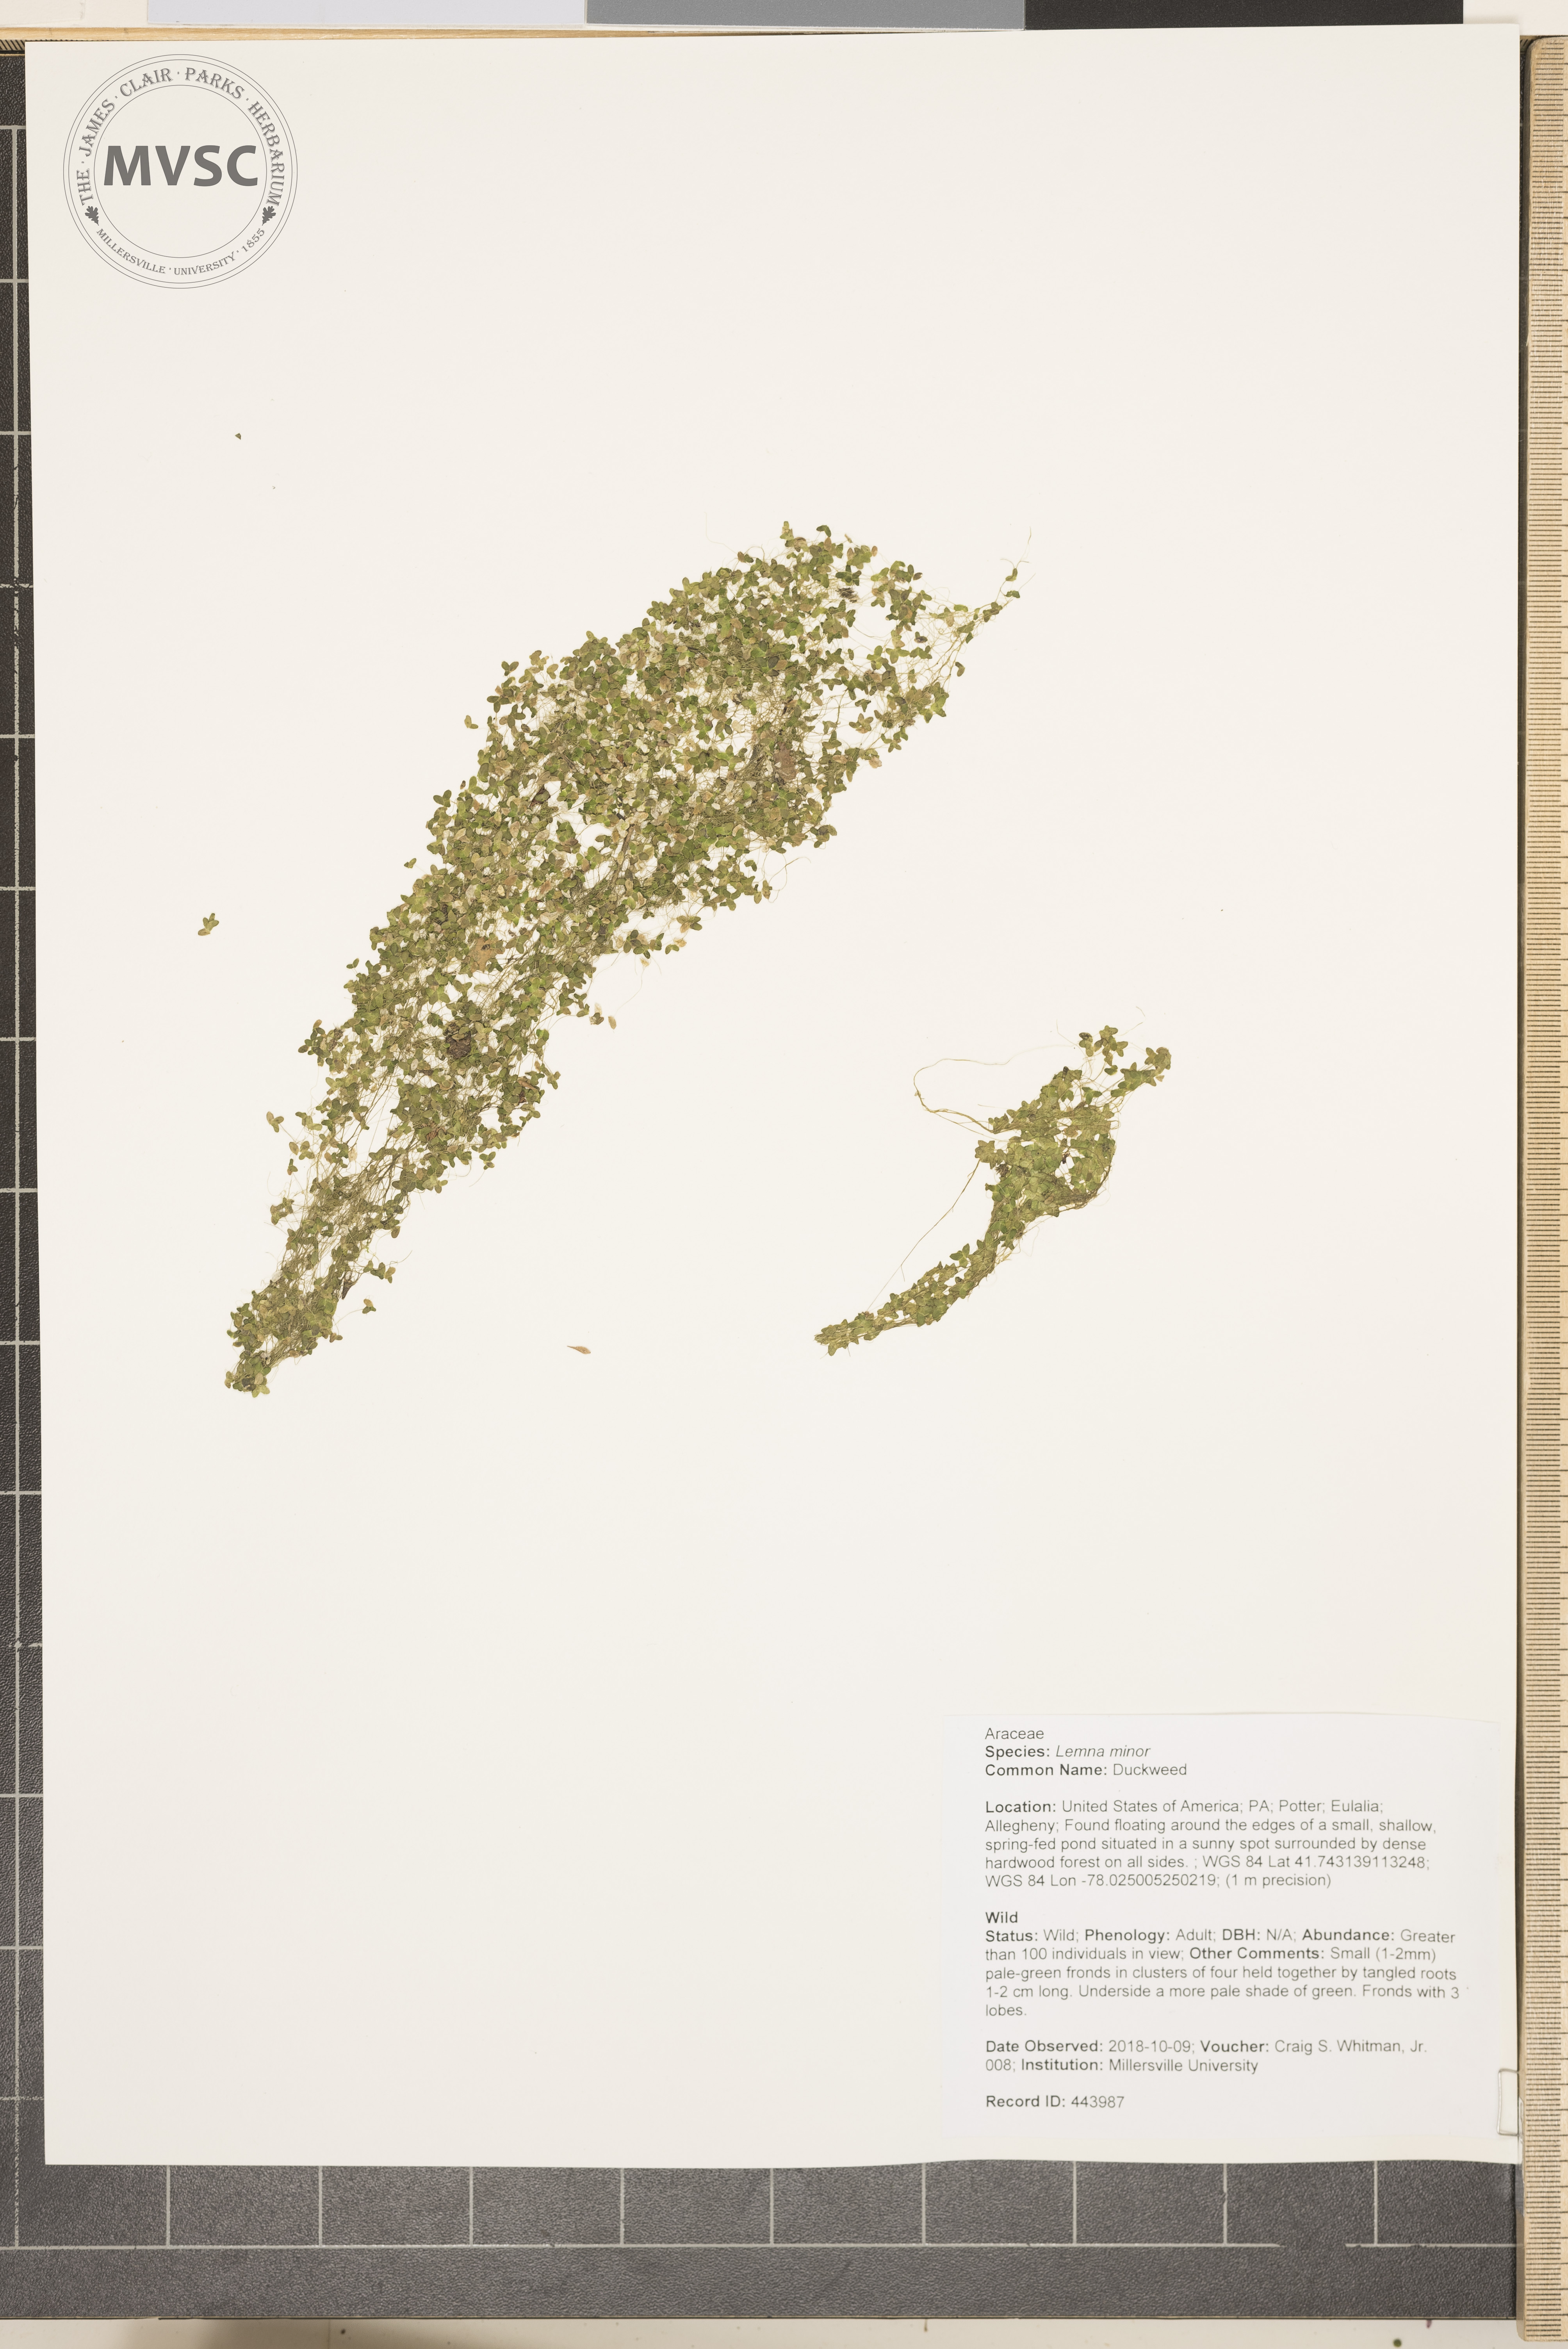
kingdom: Plantae
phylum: Tracheophyta
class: Liliopsida
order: Alismatales
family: Araceae
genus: Lemna
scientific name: Lemna minor
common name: Duckweed
